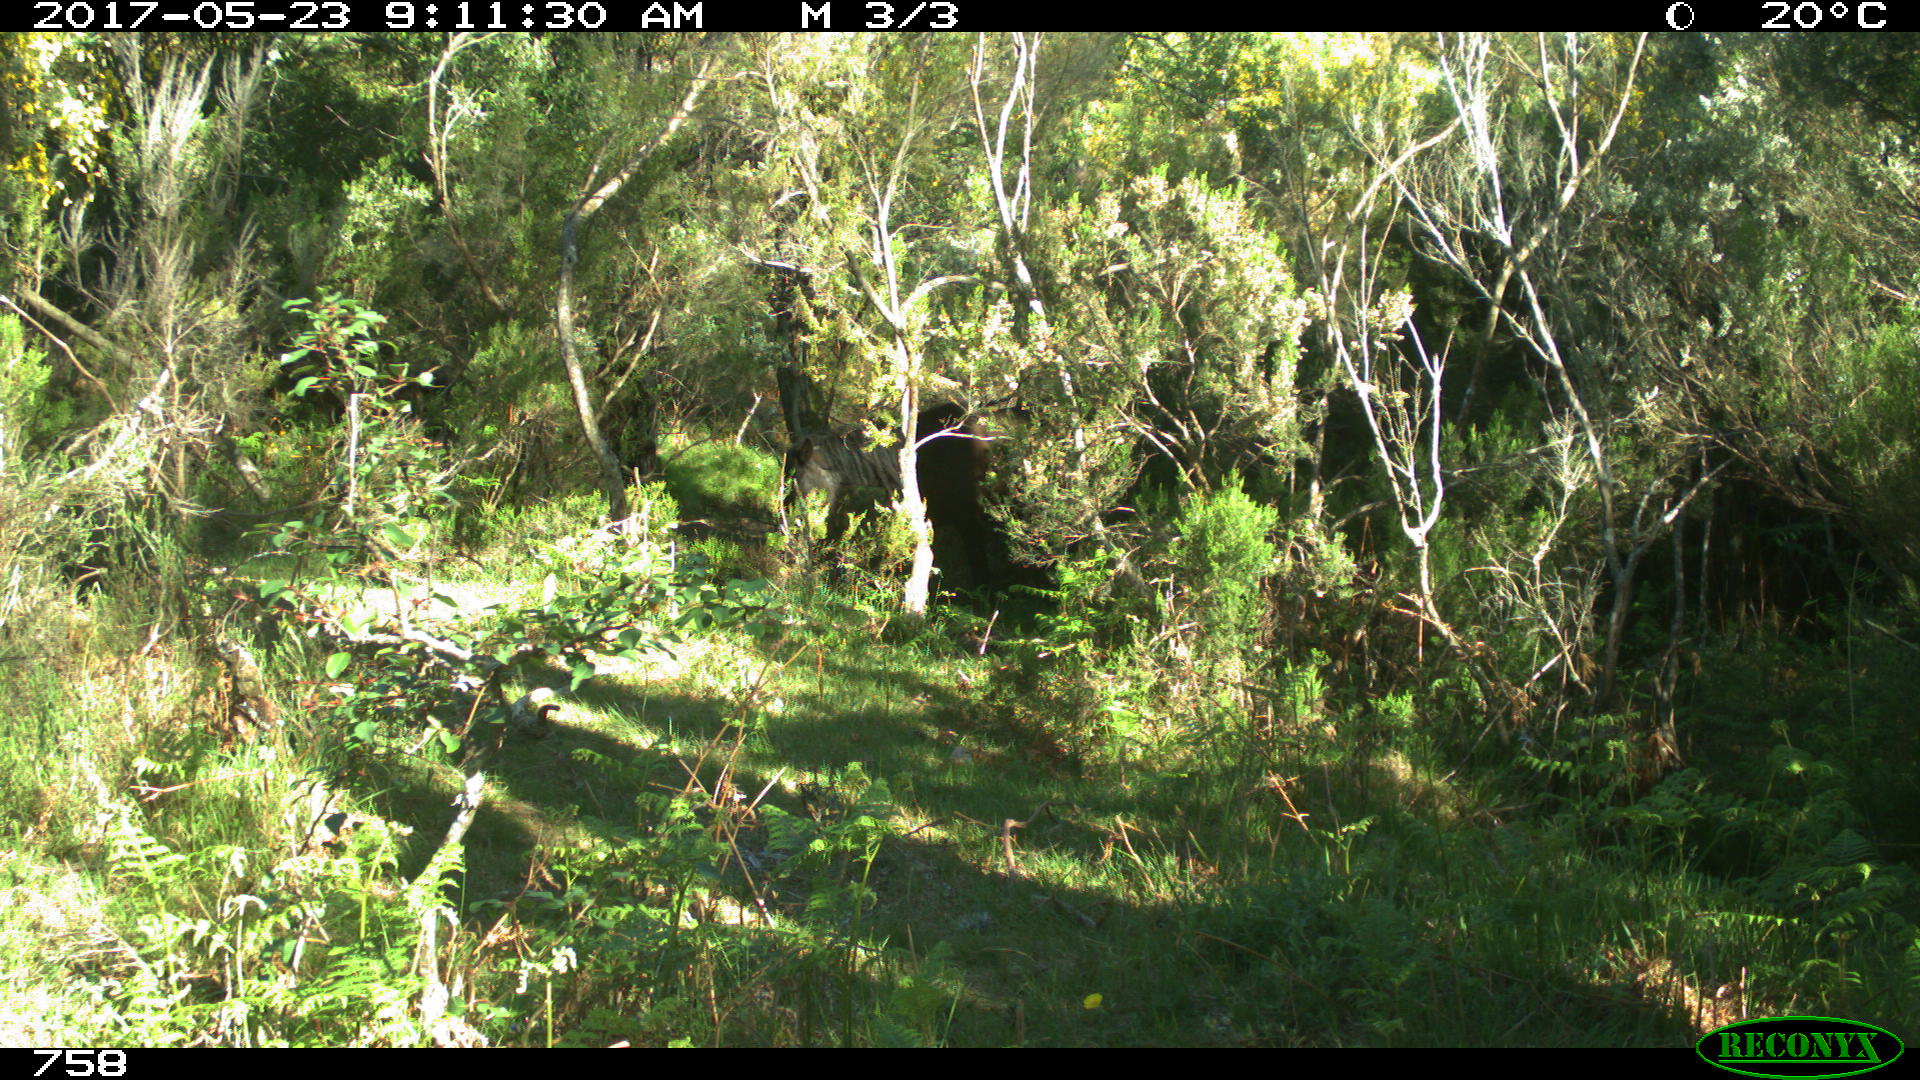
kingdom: Animalia
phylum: Chordata
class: Mammalia
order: Perissodactyla
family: Equidae
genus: Equus
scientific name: Equus caballus
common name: Horse
